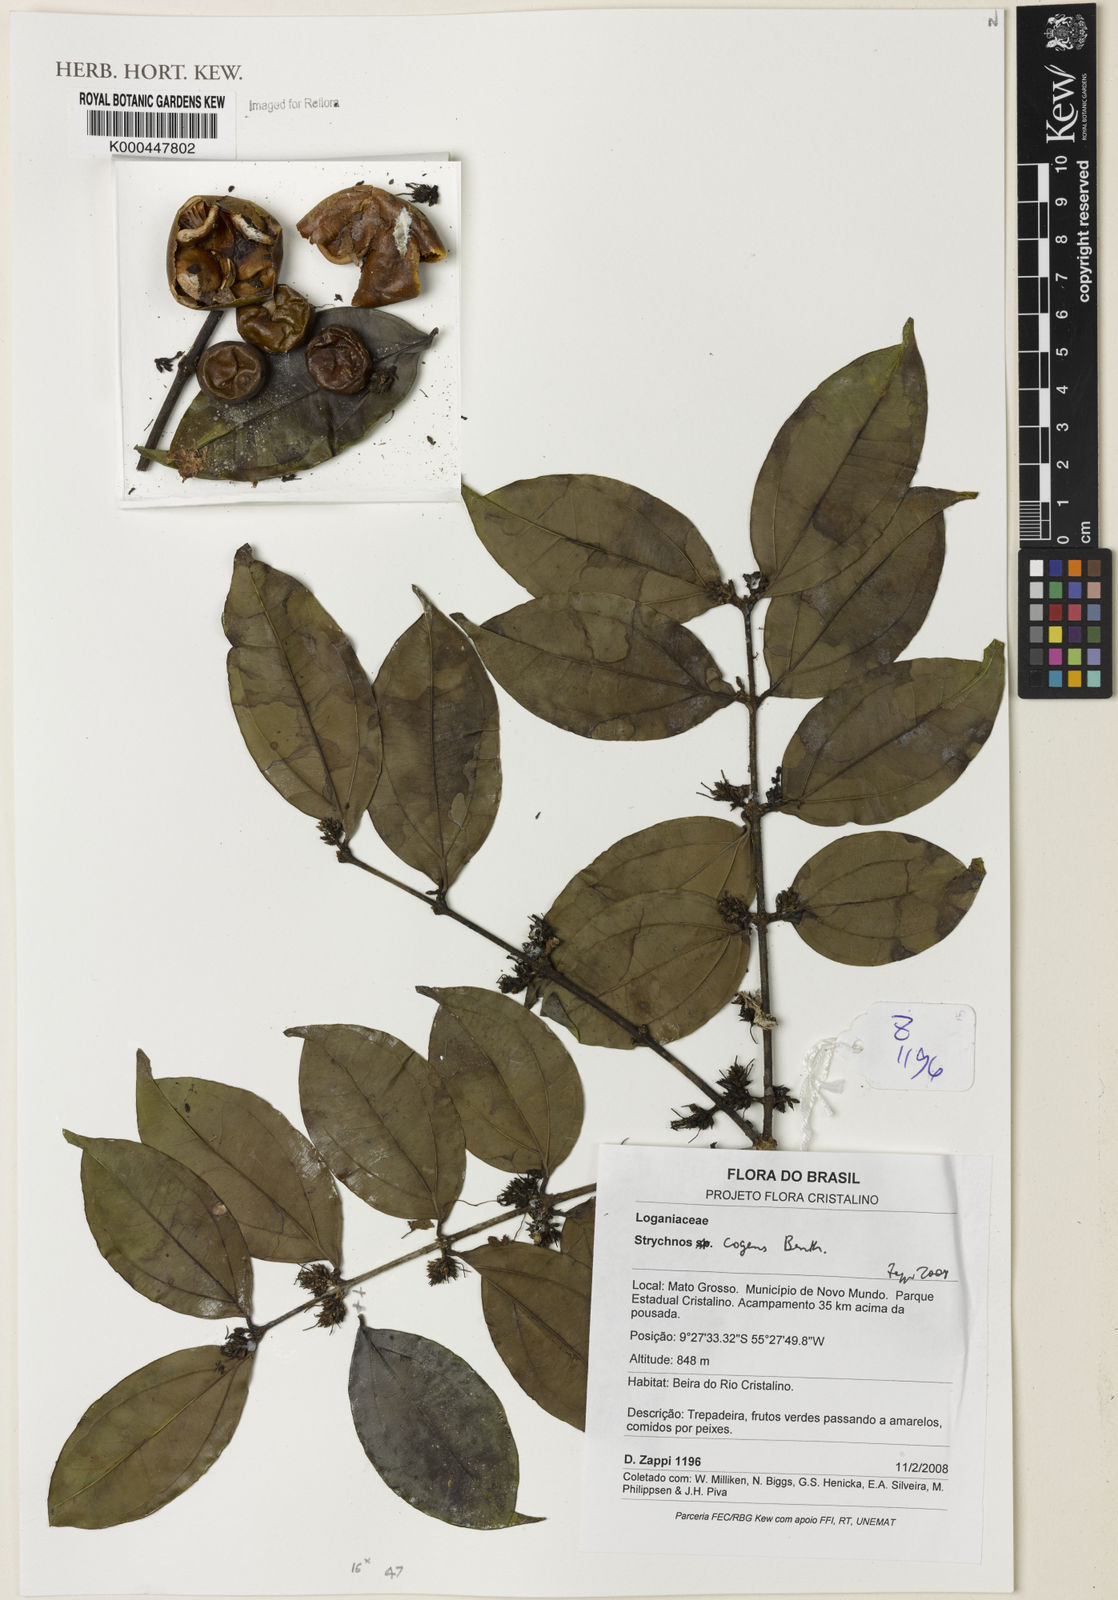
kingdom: Plantae
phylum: Tracheophyta
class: Magnoliopsida
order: Gentianales
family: Loganiaceae
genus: Strychnos
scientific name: Strychnos cogens
